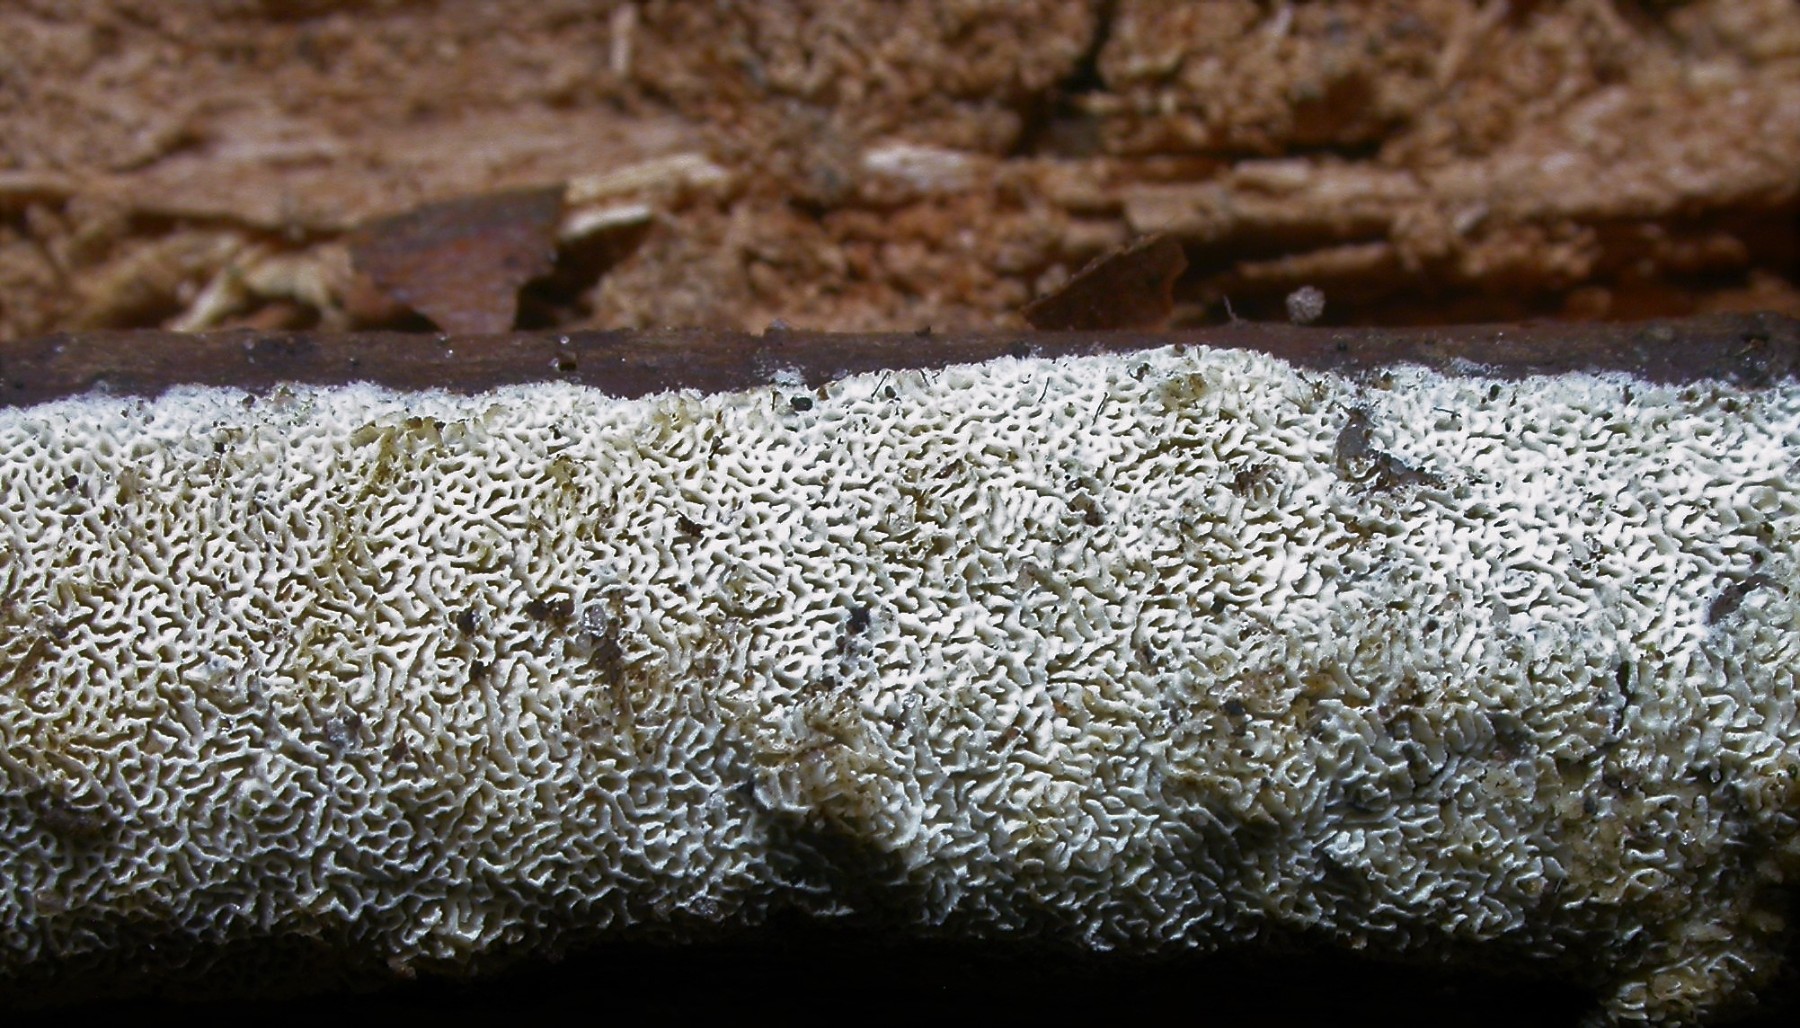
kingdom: Fungi
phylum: Basidiomycota
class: Agaricomycetes
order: Hymenochaetales
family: Schizoporaceae
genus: Xylodon
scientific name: Xylodon subtropicus
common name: labyrint-tandsvamp
